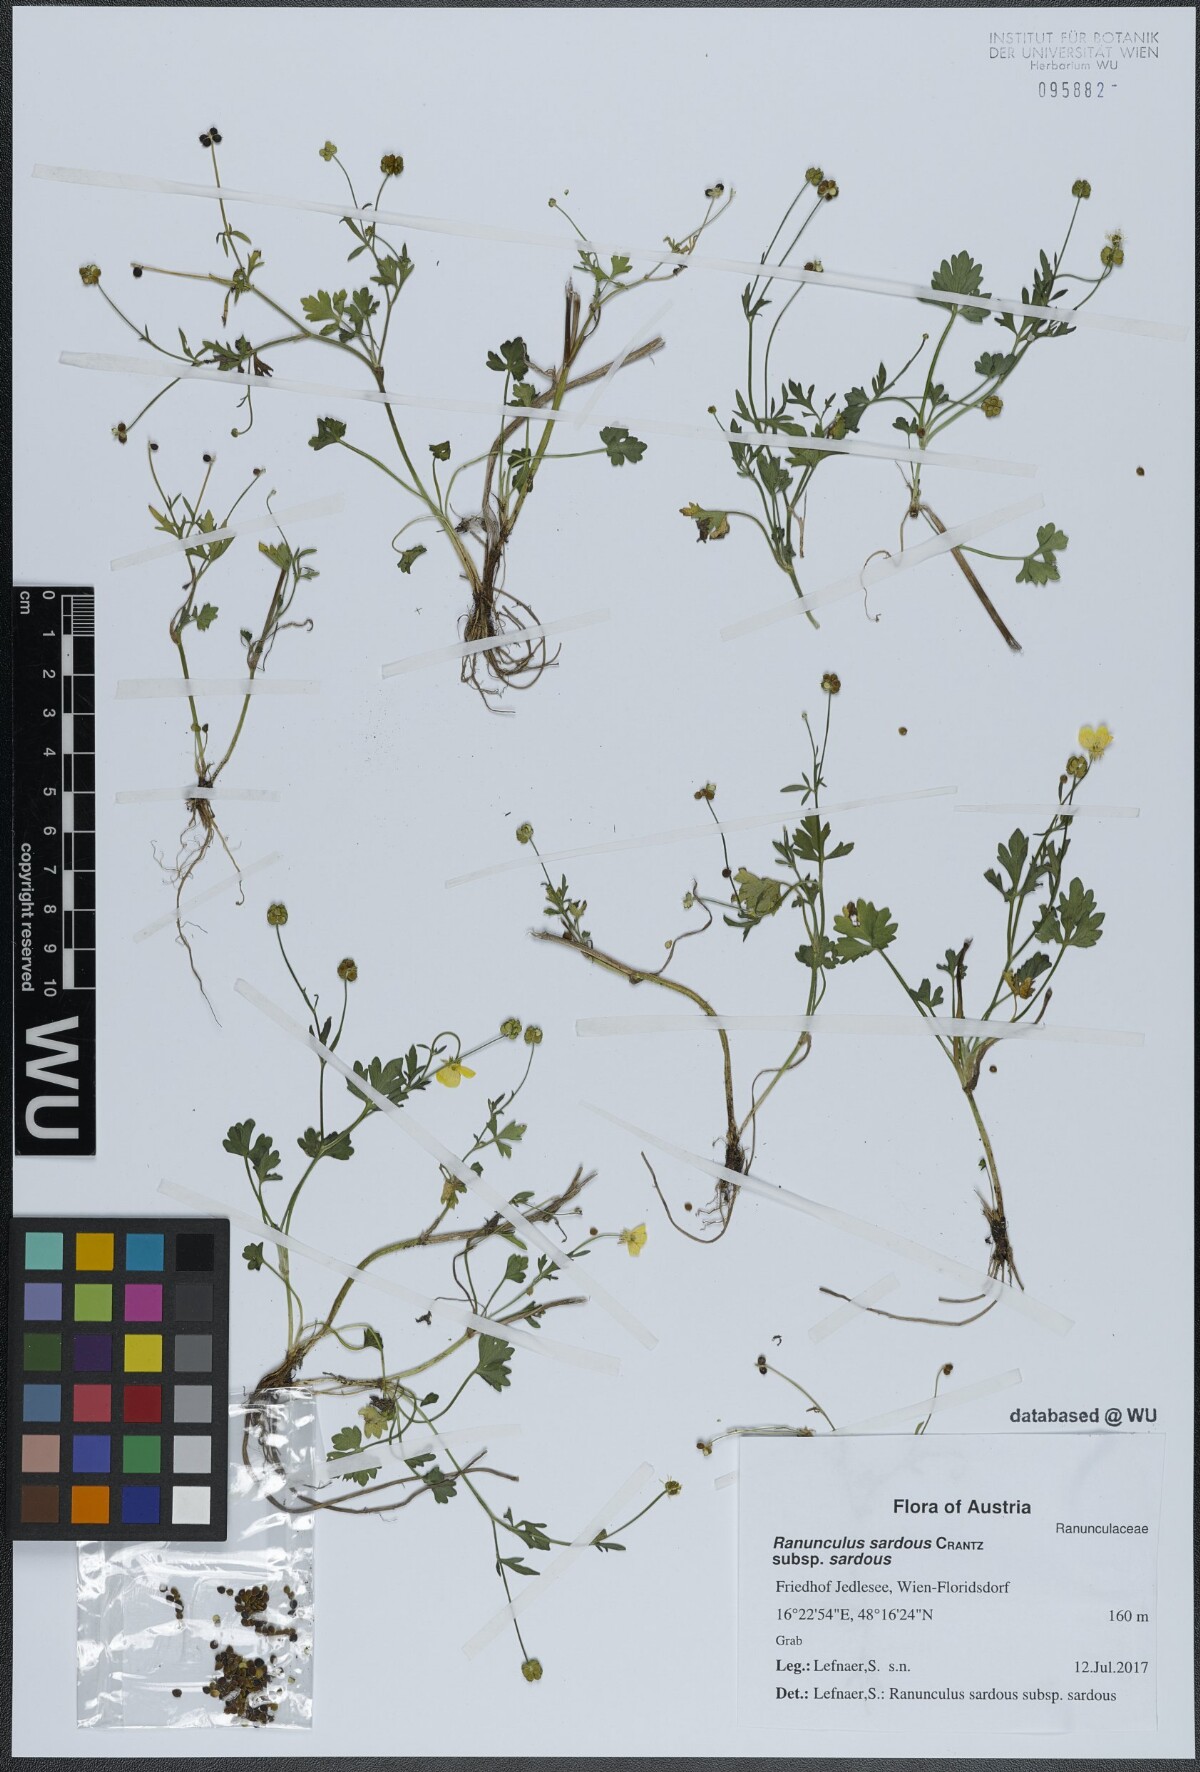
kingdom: Plantae
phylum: Tracheophyta
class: Magnoliopsida
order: Ranunculales
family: Ranunculaceae
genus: Ranunculus
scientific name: Ranunculus sardous
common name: Hairy buttercup
